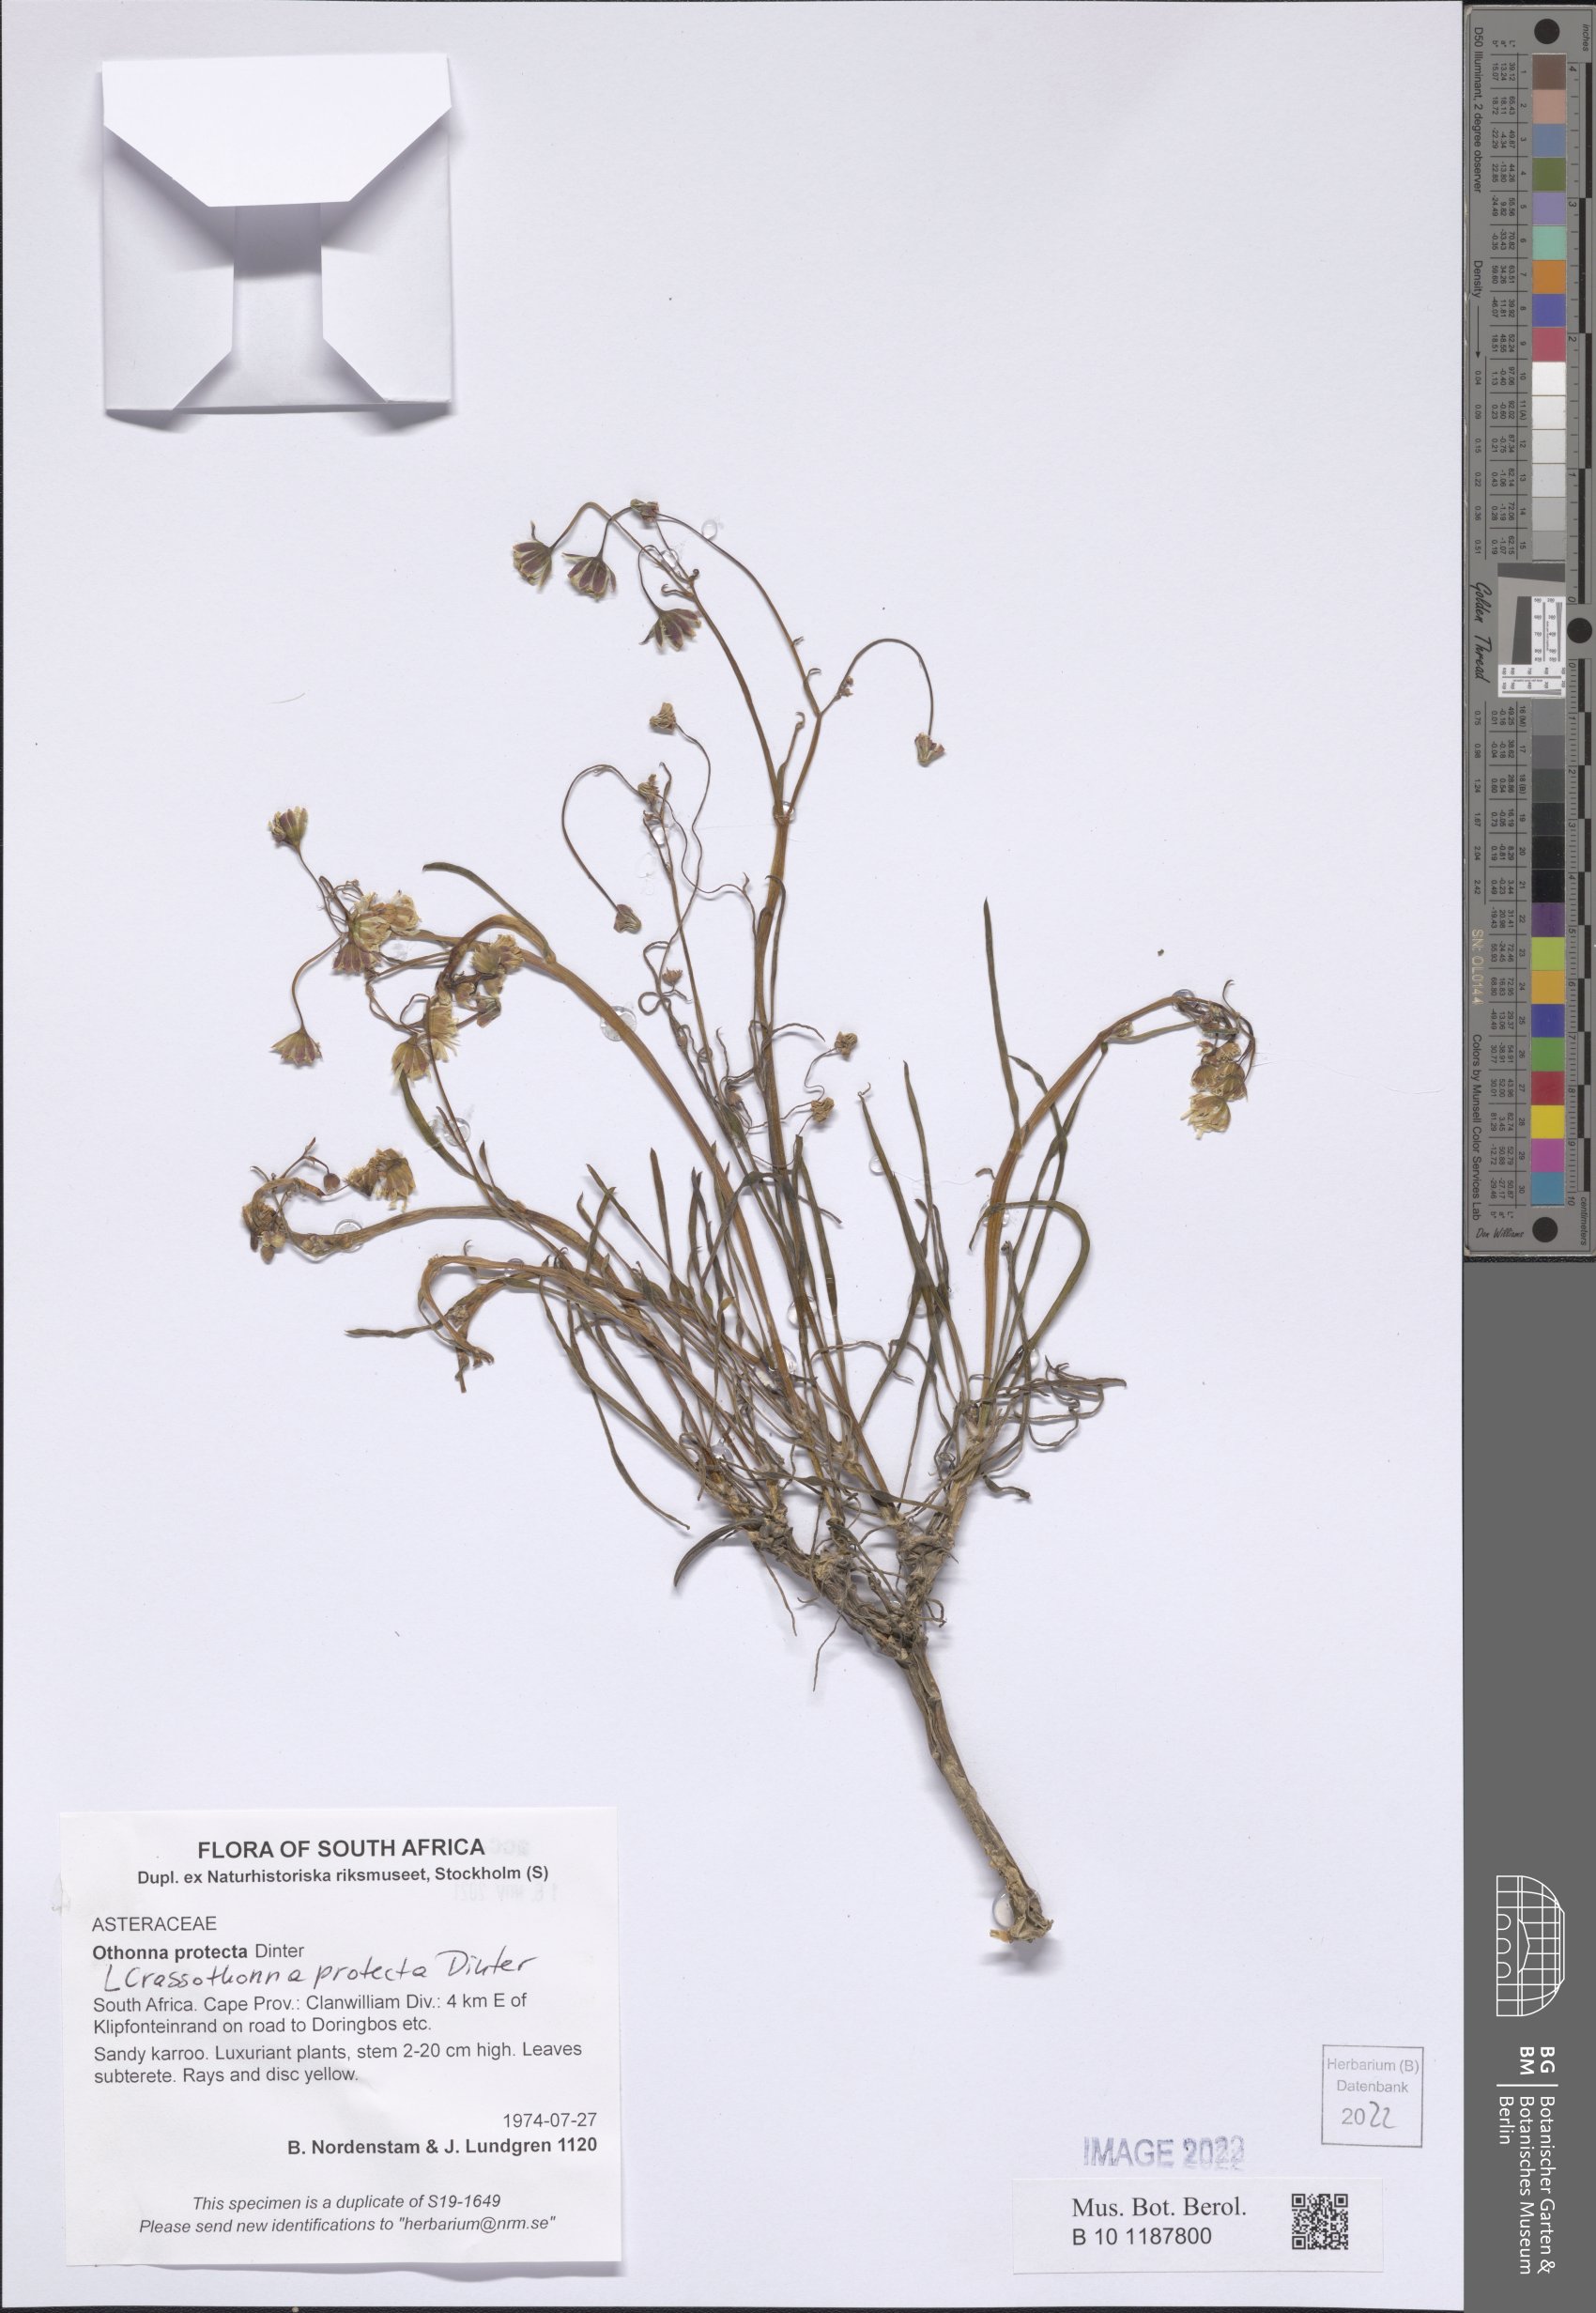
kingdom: Plantae
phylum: Tracheophyta
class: Magnoliopsida
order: Asterales
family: Asteraceae
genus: Crassothonna
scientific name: Crassothonna protecta
